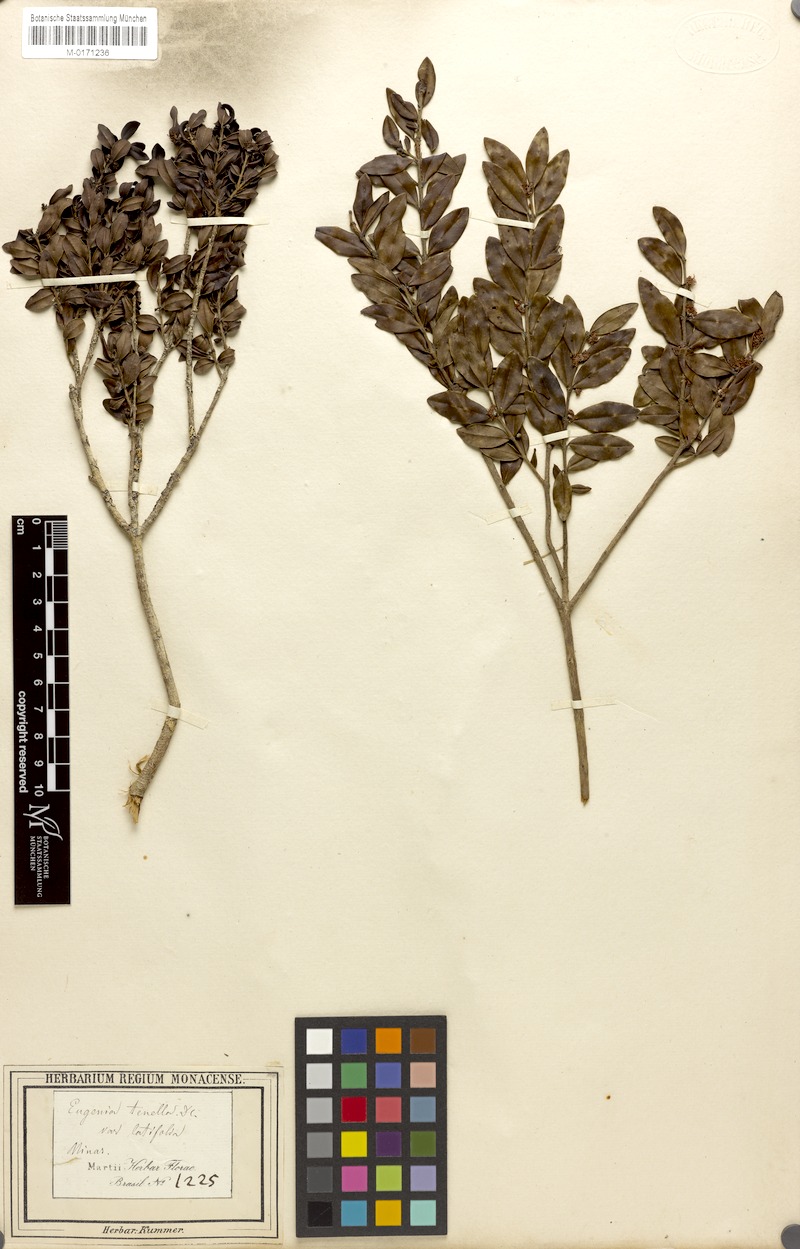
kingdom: Plantae
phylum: Tracheophyta
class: Magnoliopsida
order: Myrtales
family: Myrtaceae
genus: Myrciaria
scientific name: Myrciaria tenella
